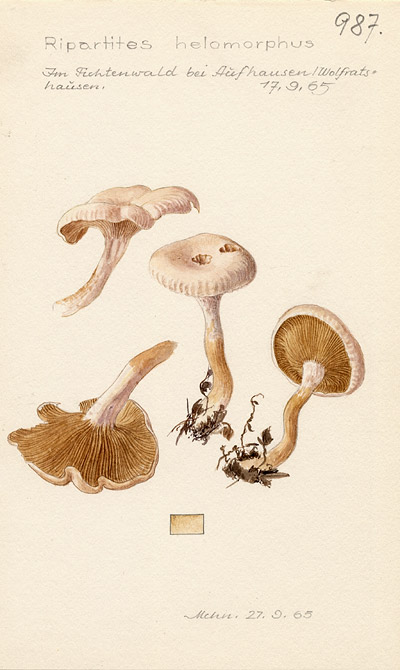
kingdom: Fungi
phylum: Basidiomycota
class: Agaricomycetes
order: Agaricales
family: Tricholomataceae
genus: Ripartites
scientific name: Ripartites tricholoma
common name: Bearded seamine
